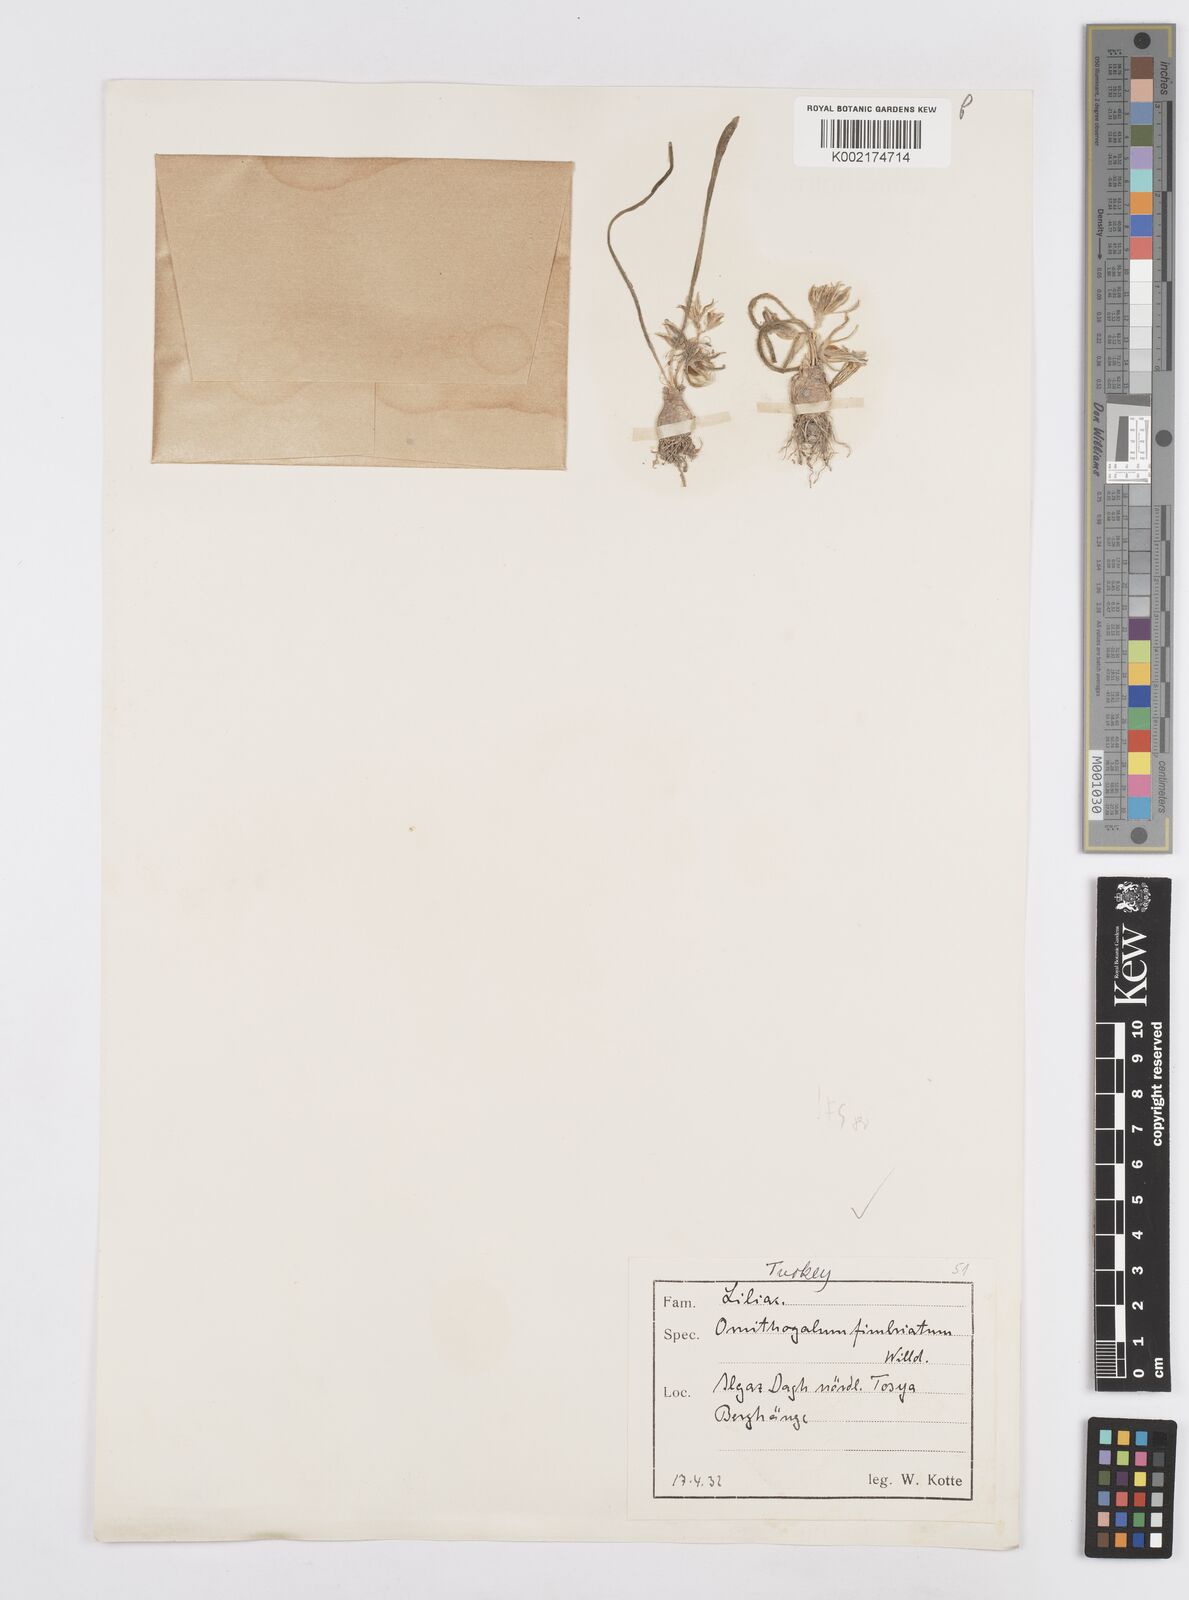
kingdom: Plantae
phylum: Tracheophyta
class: Liliopsida
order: Asparagales
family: Asparagaceae
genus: Ornithogalum
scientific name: Ornithogalum fimbriatum
